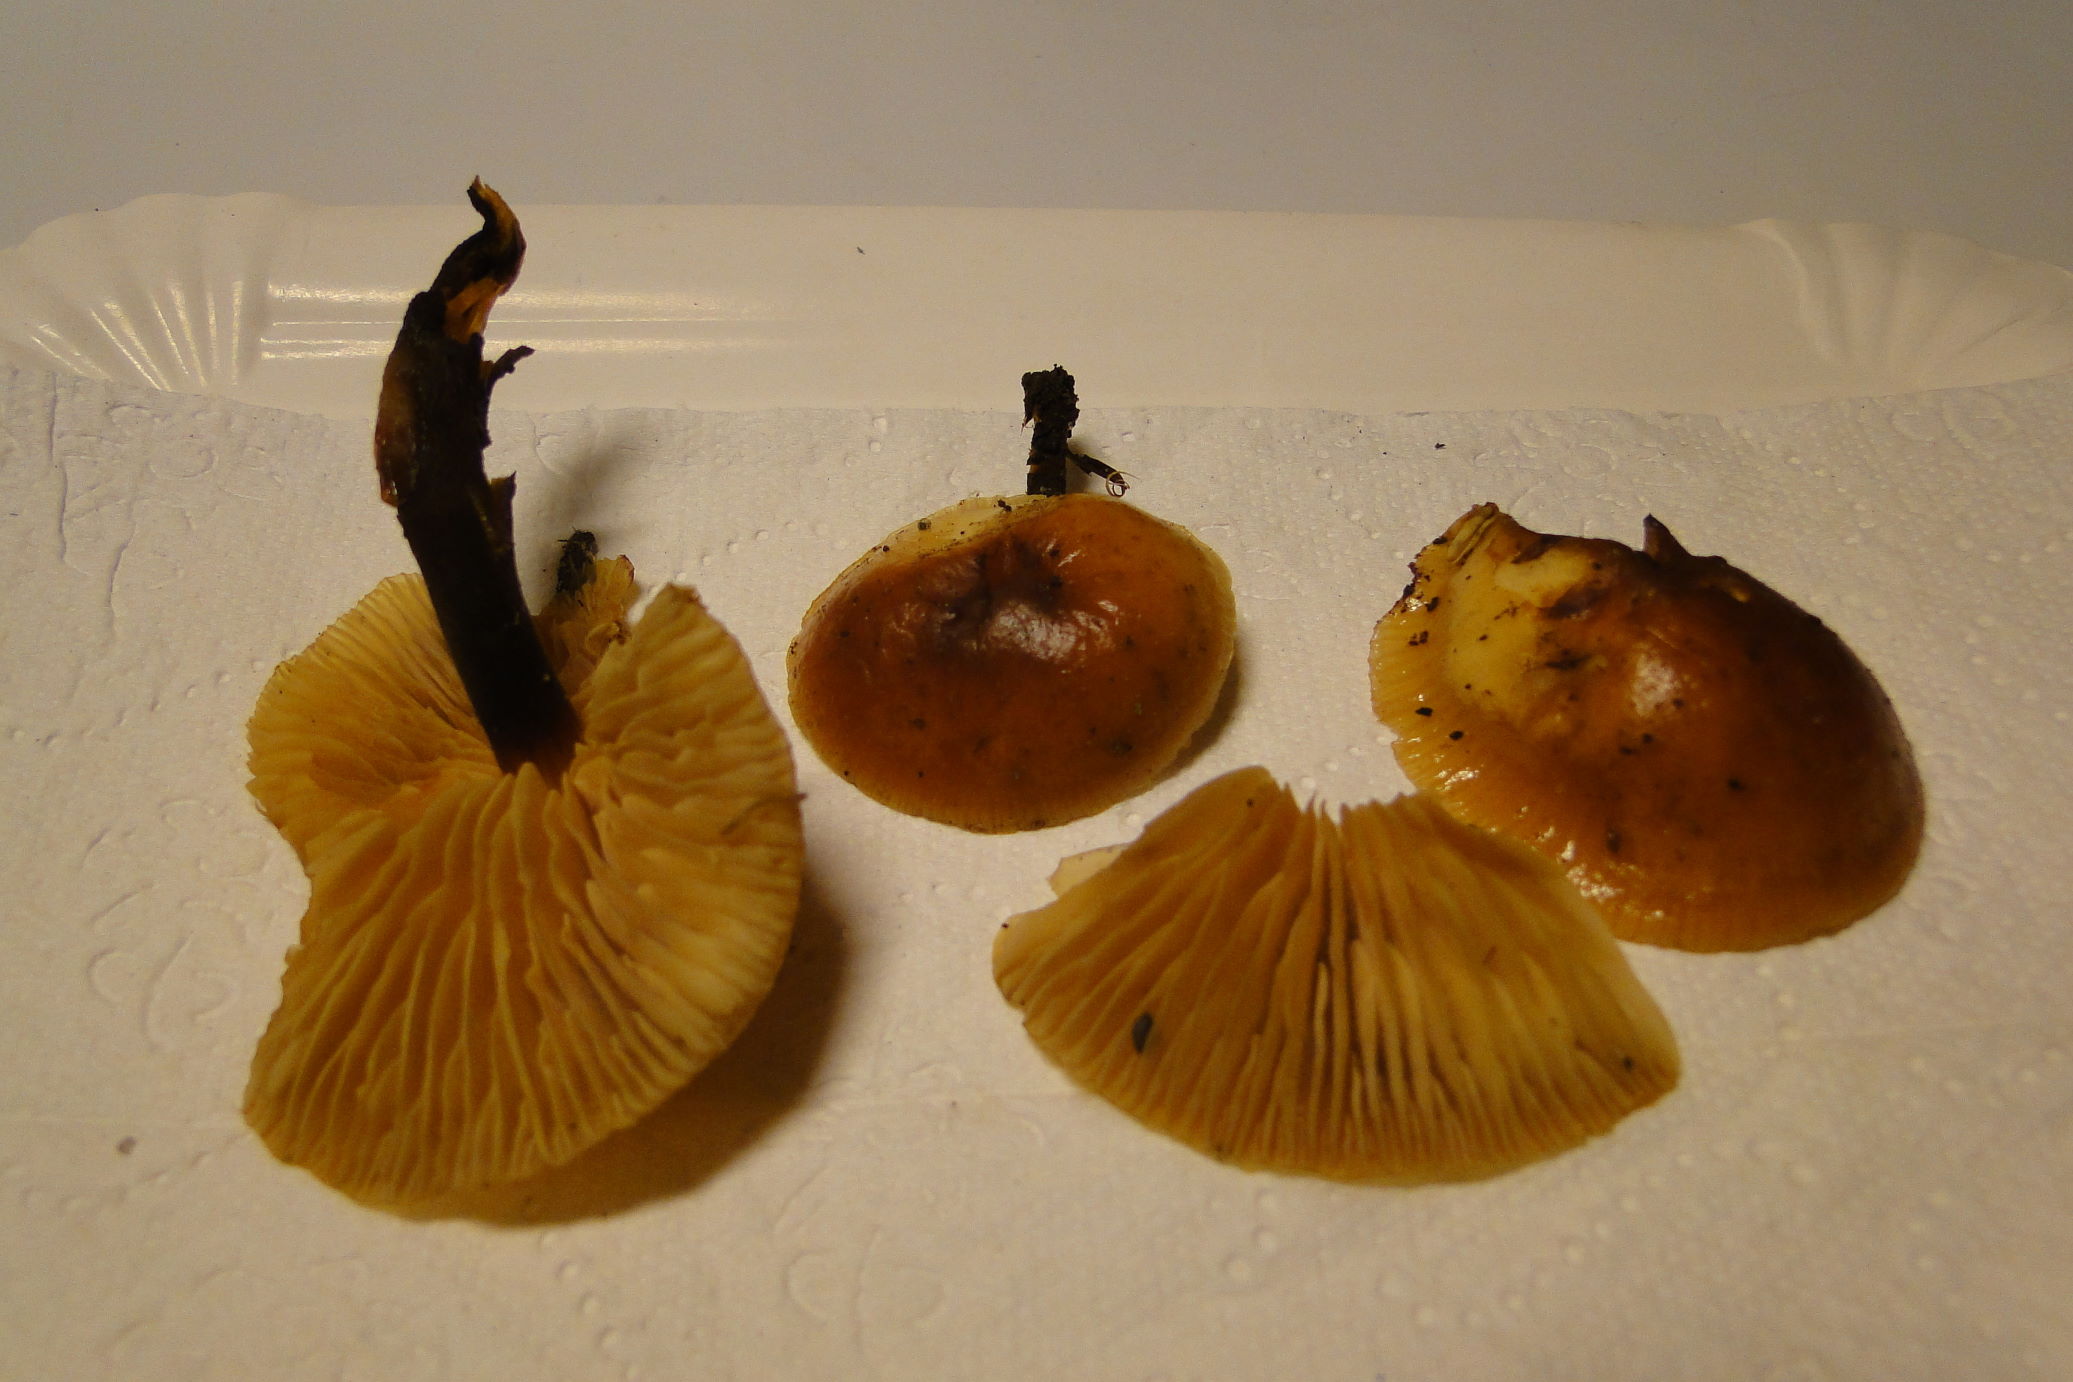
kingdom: Fungi
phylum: Basidiomycota
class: Agaricomycetes
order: Agaricales
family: Physalacriaceae
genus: Flammulina
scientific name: Flammulina elastica
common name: pile-fløjlsfod
